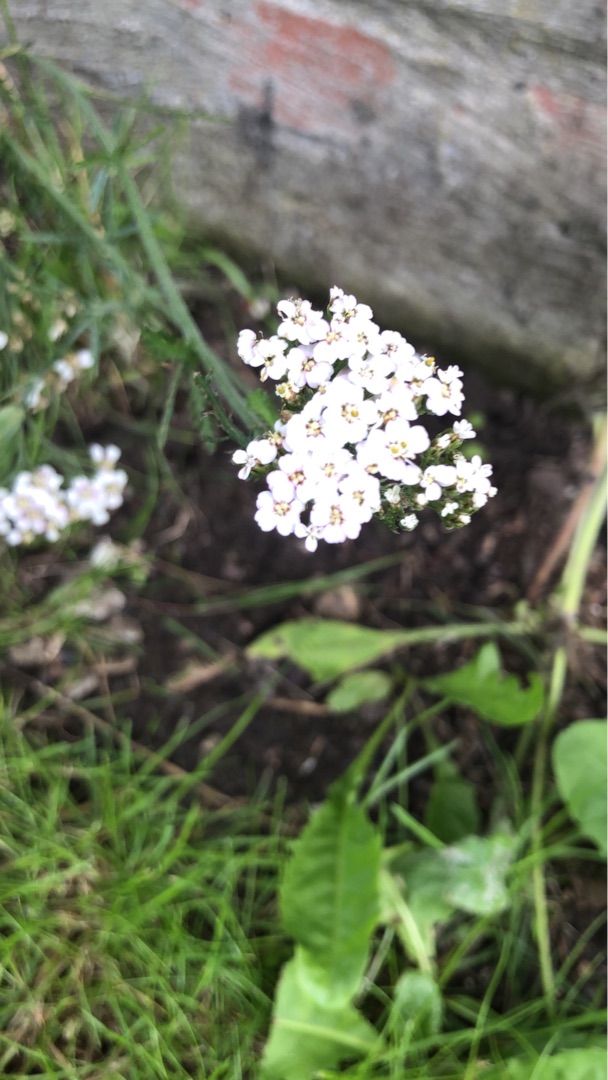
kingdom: Plantae
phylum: Tracheophyta
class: Magnoliopsida
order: Asterales
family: Asteraceae
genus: Achillea
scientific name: Achillea millefolium
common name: Almindelig røllike
